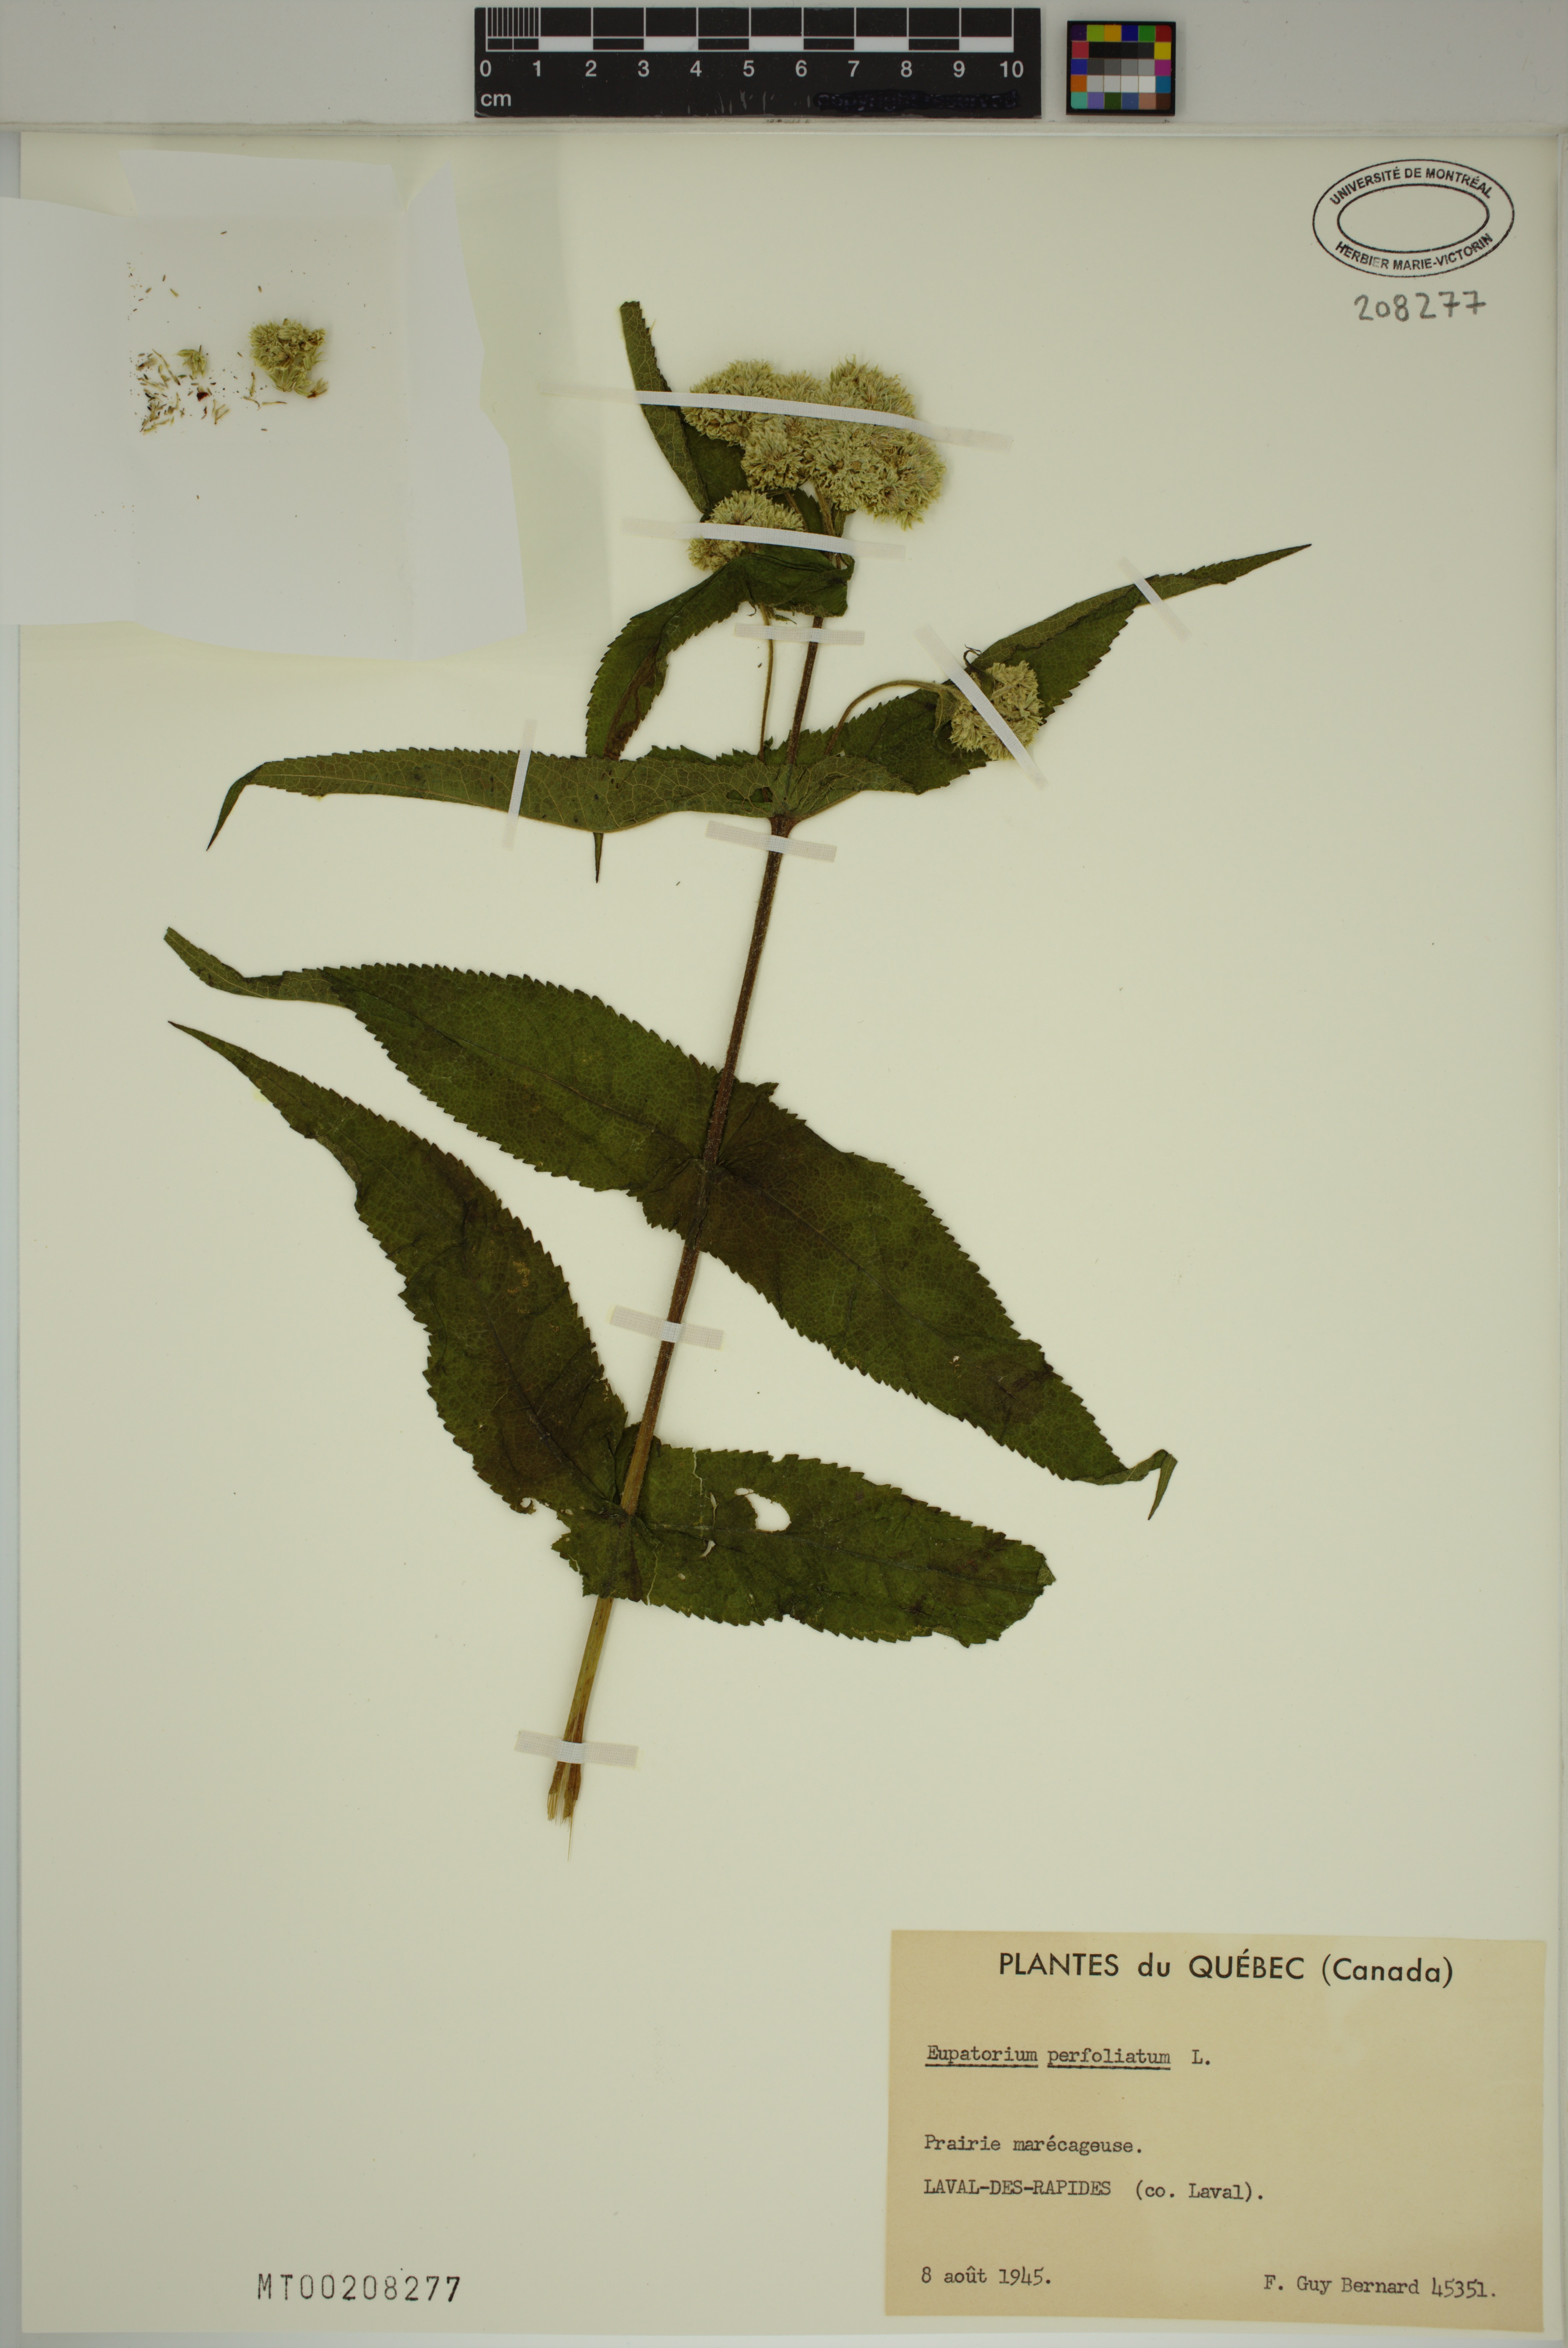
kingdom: Plantae
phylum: Tracheophyta
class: Magnoliopsida
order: Asterales
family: Asteraceae
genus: Eupatorium
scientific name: Eupatorium perfoliatum
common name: Boneset
